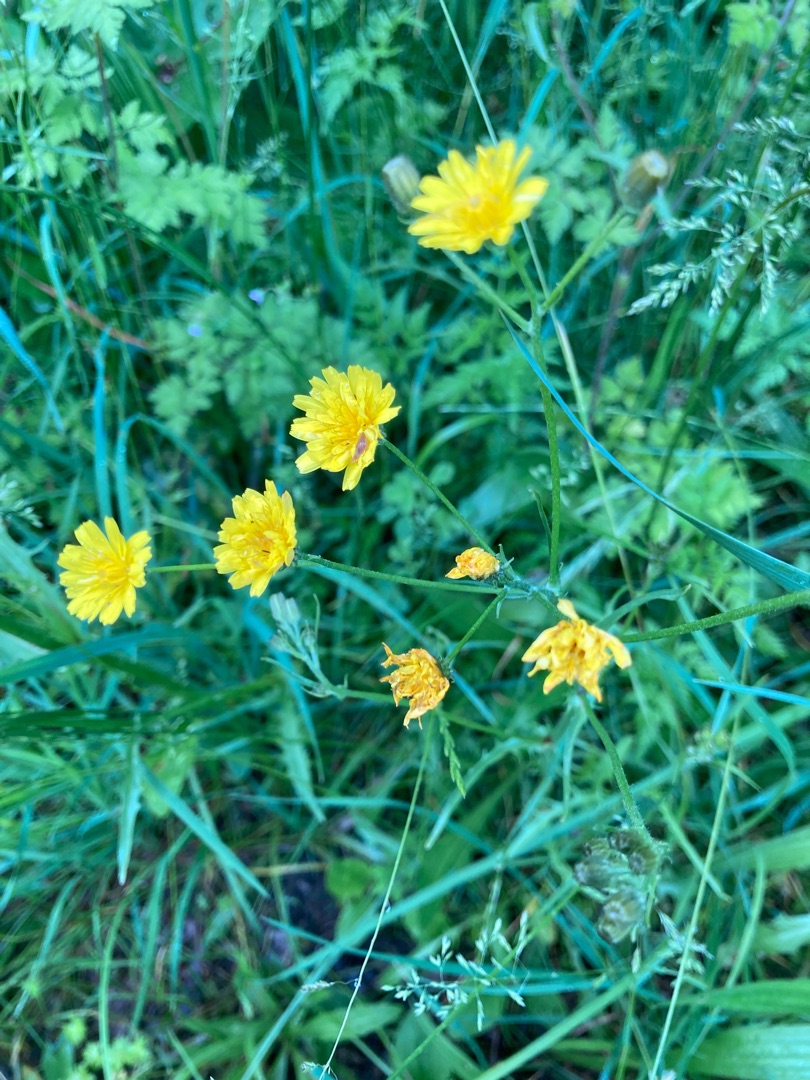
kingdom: Plantae
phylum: Tracheophyta
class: Magnoliopsida
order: Asterales
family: Asteraceae
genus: Crepis
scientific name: Crepis
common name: Høgeskægslægten
